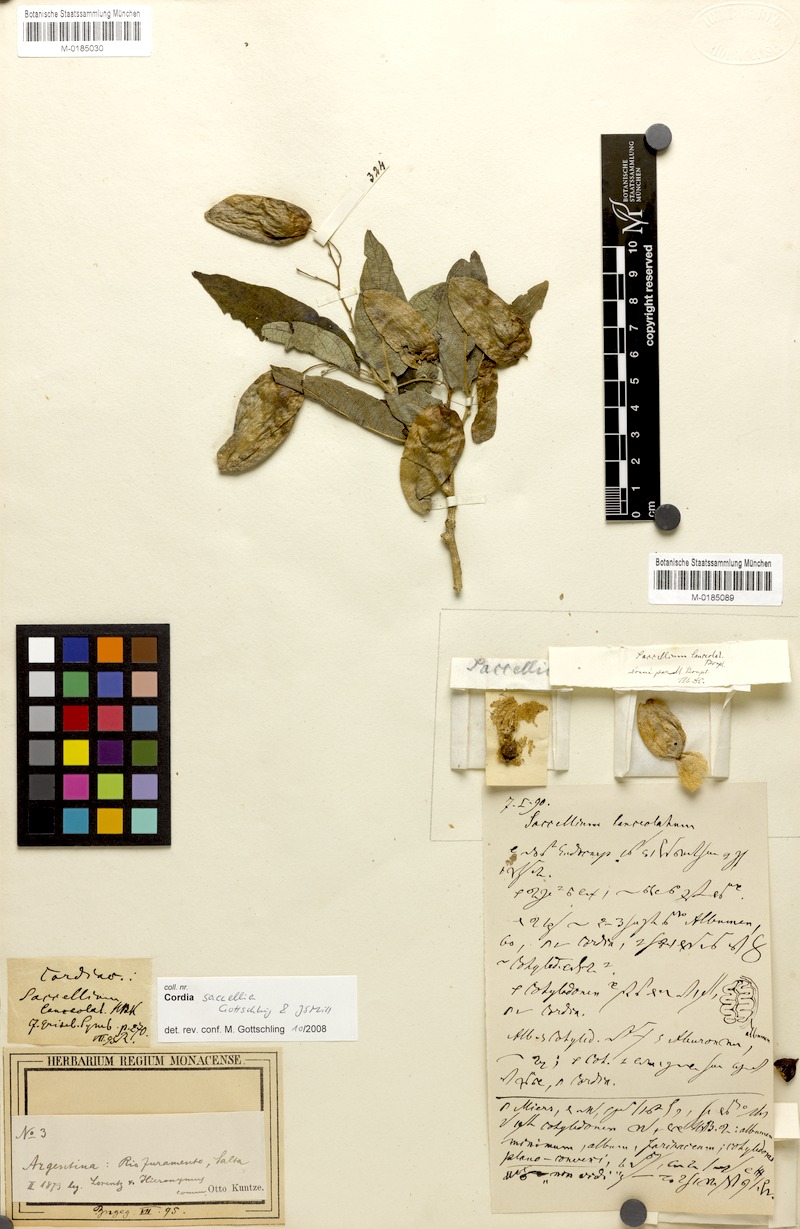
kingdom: Plantae
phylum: Tracheophyta
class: Magnoliopsida
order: Boraginales
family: Cordiaceae
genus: Cordia
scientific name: Cordia saccellia
